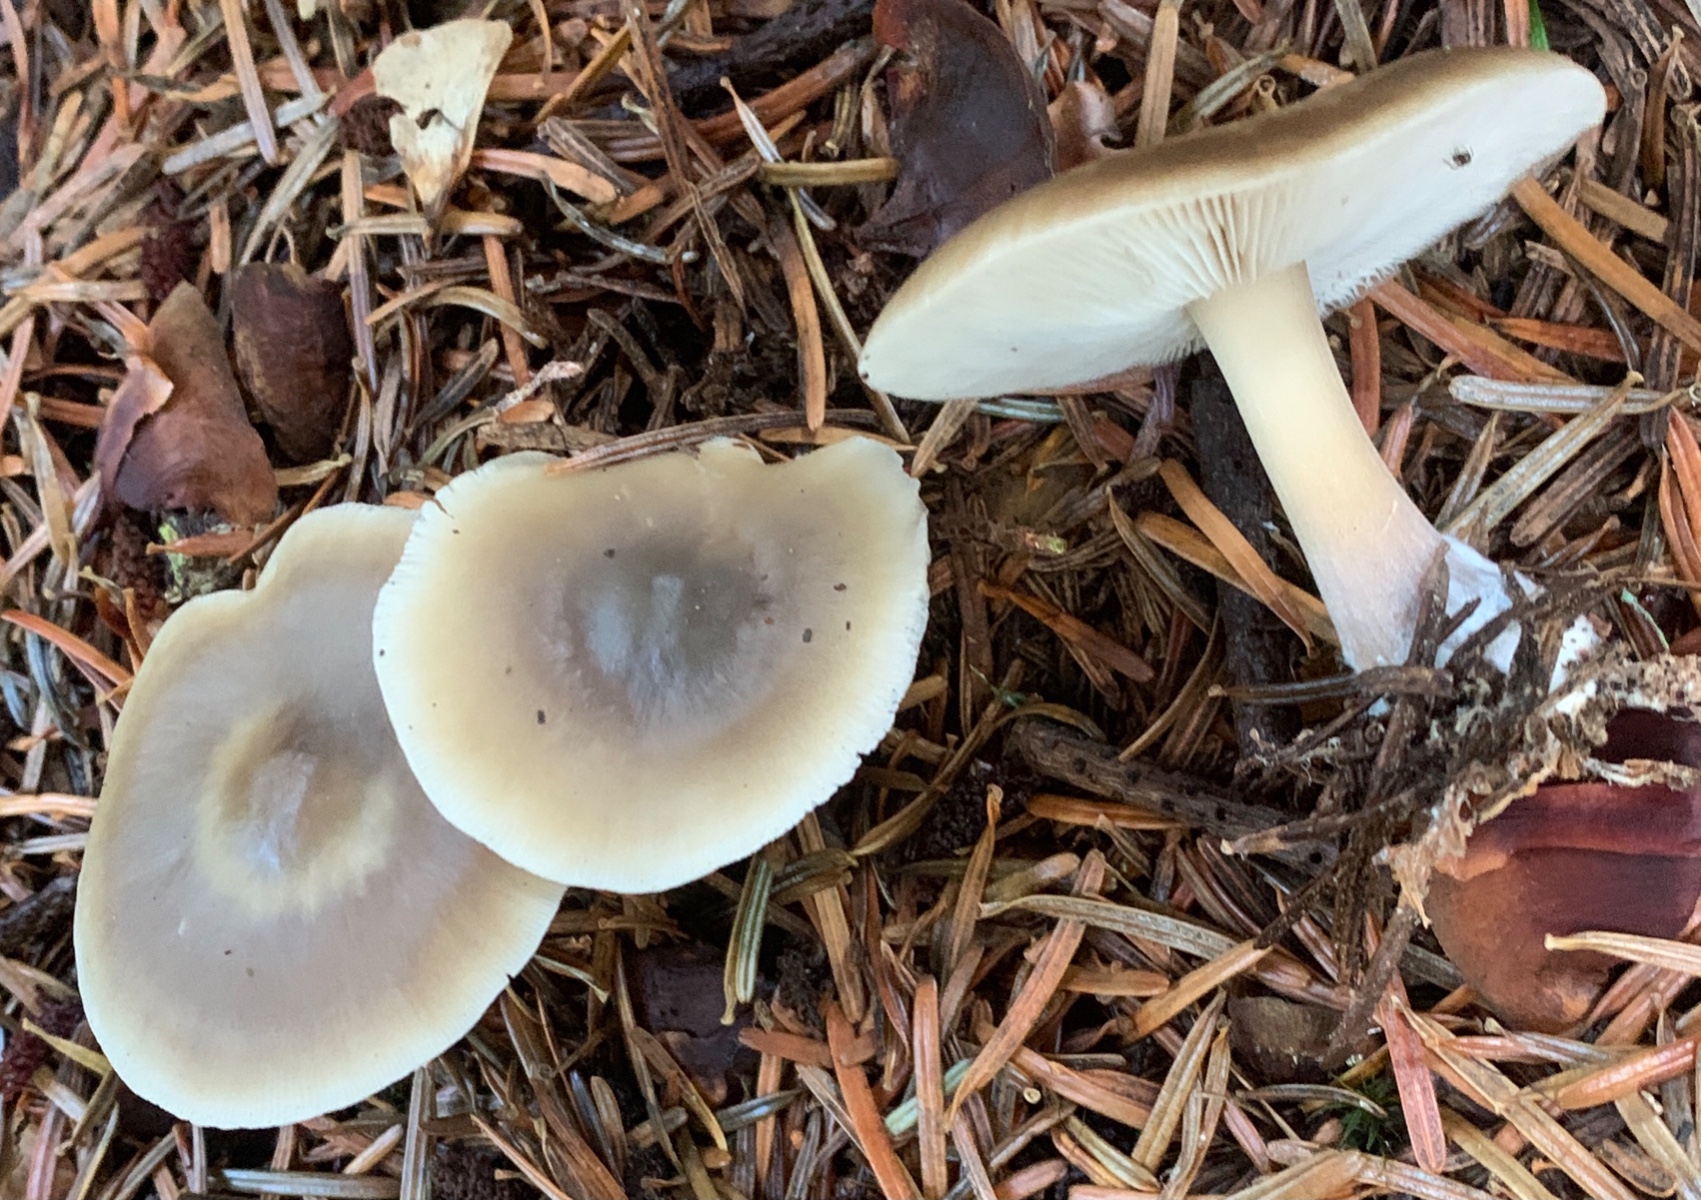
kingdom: Fungi
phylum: Basidiomycota
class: Agaricomycetes
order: Agaricales
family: Omphalotaceae
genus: Rhodocollybia
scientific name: Rhodocollybia asema
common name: horngrå fladhat
